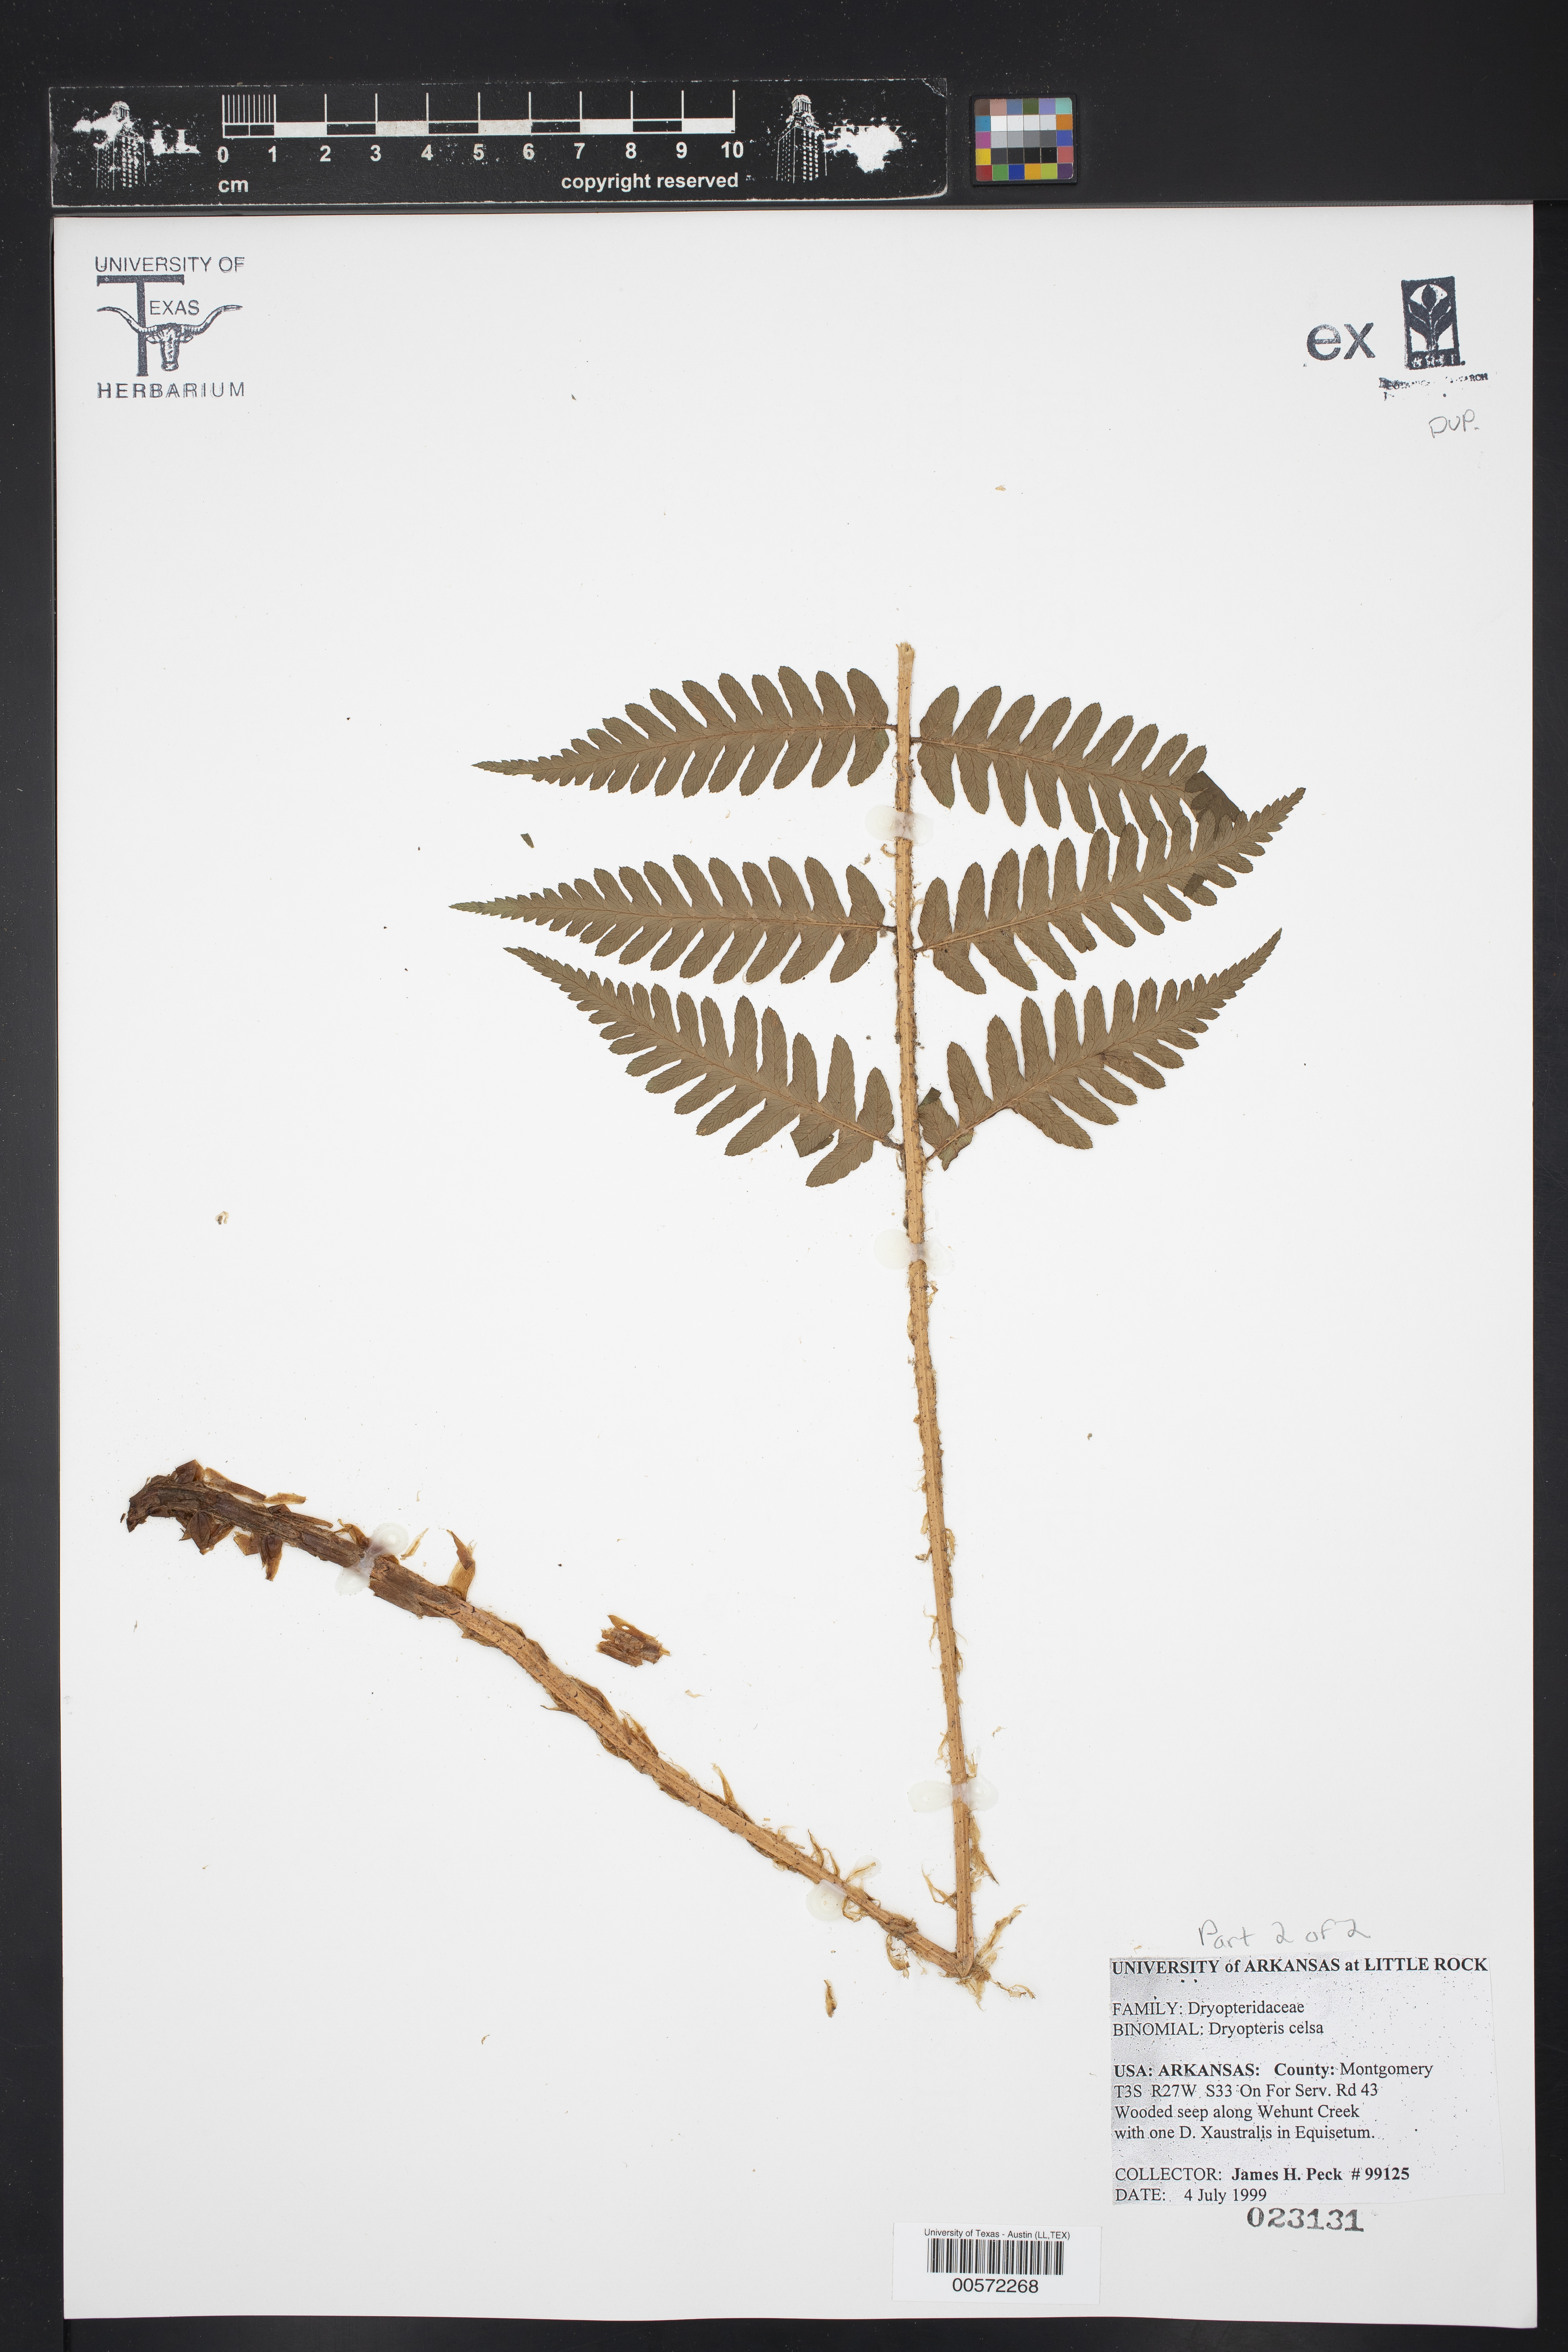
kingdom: Plantae
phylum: Tracheophyta
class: Polypodiopsida
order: Polypodiales
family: Dryopteridaceae
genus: Dryopteris
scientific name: Dryopteris celsa
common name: Log fern
